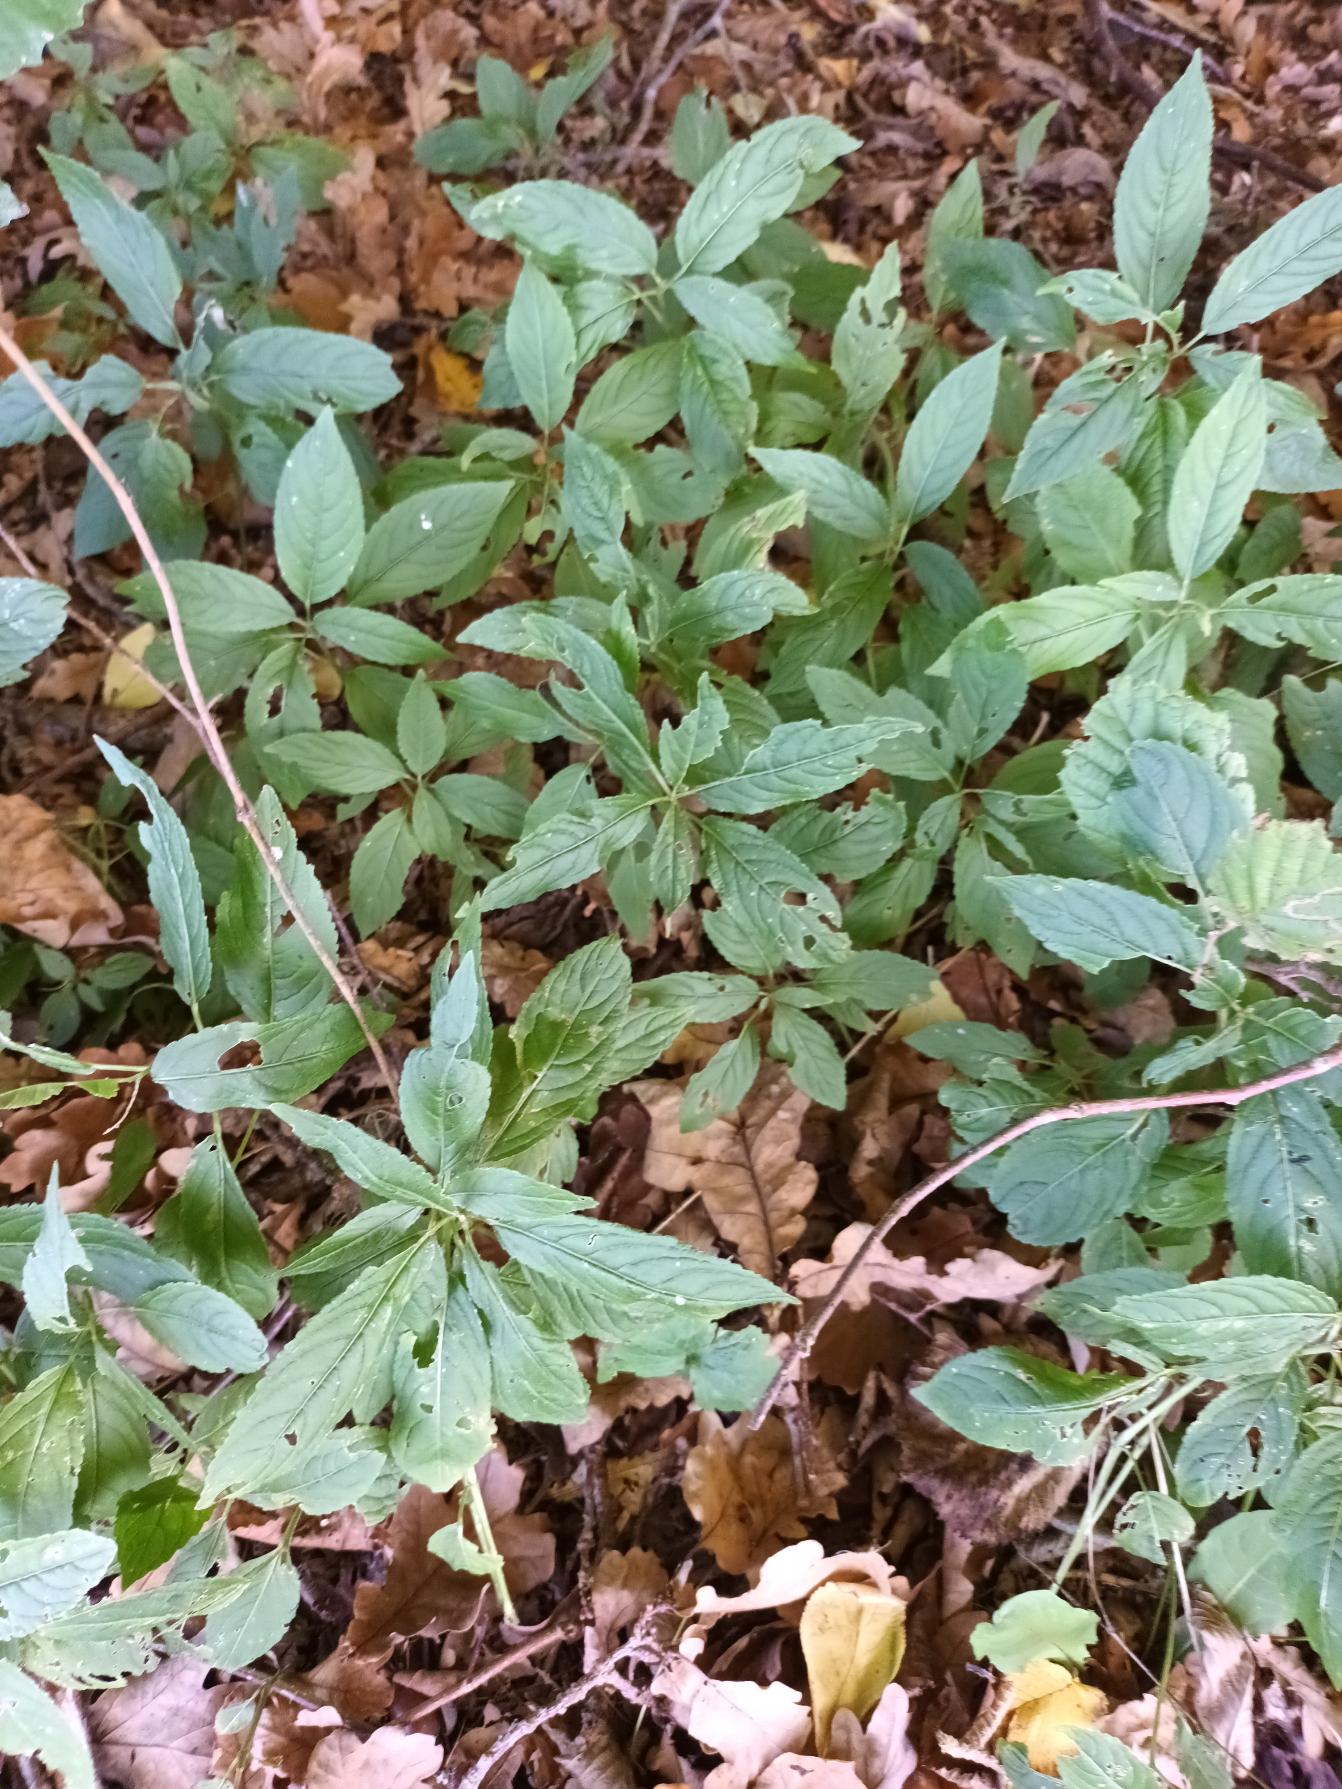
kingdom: Plantae
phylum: Tracheophyta
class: Magnoliopsida
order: Malpighiales
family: Euphorbiaceae
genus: Mercurialis
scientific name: Mercurialis perennis
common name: Almindelig bingelurt
